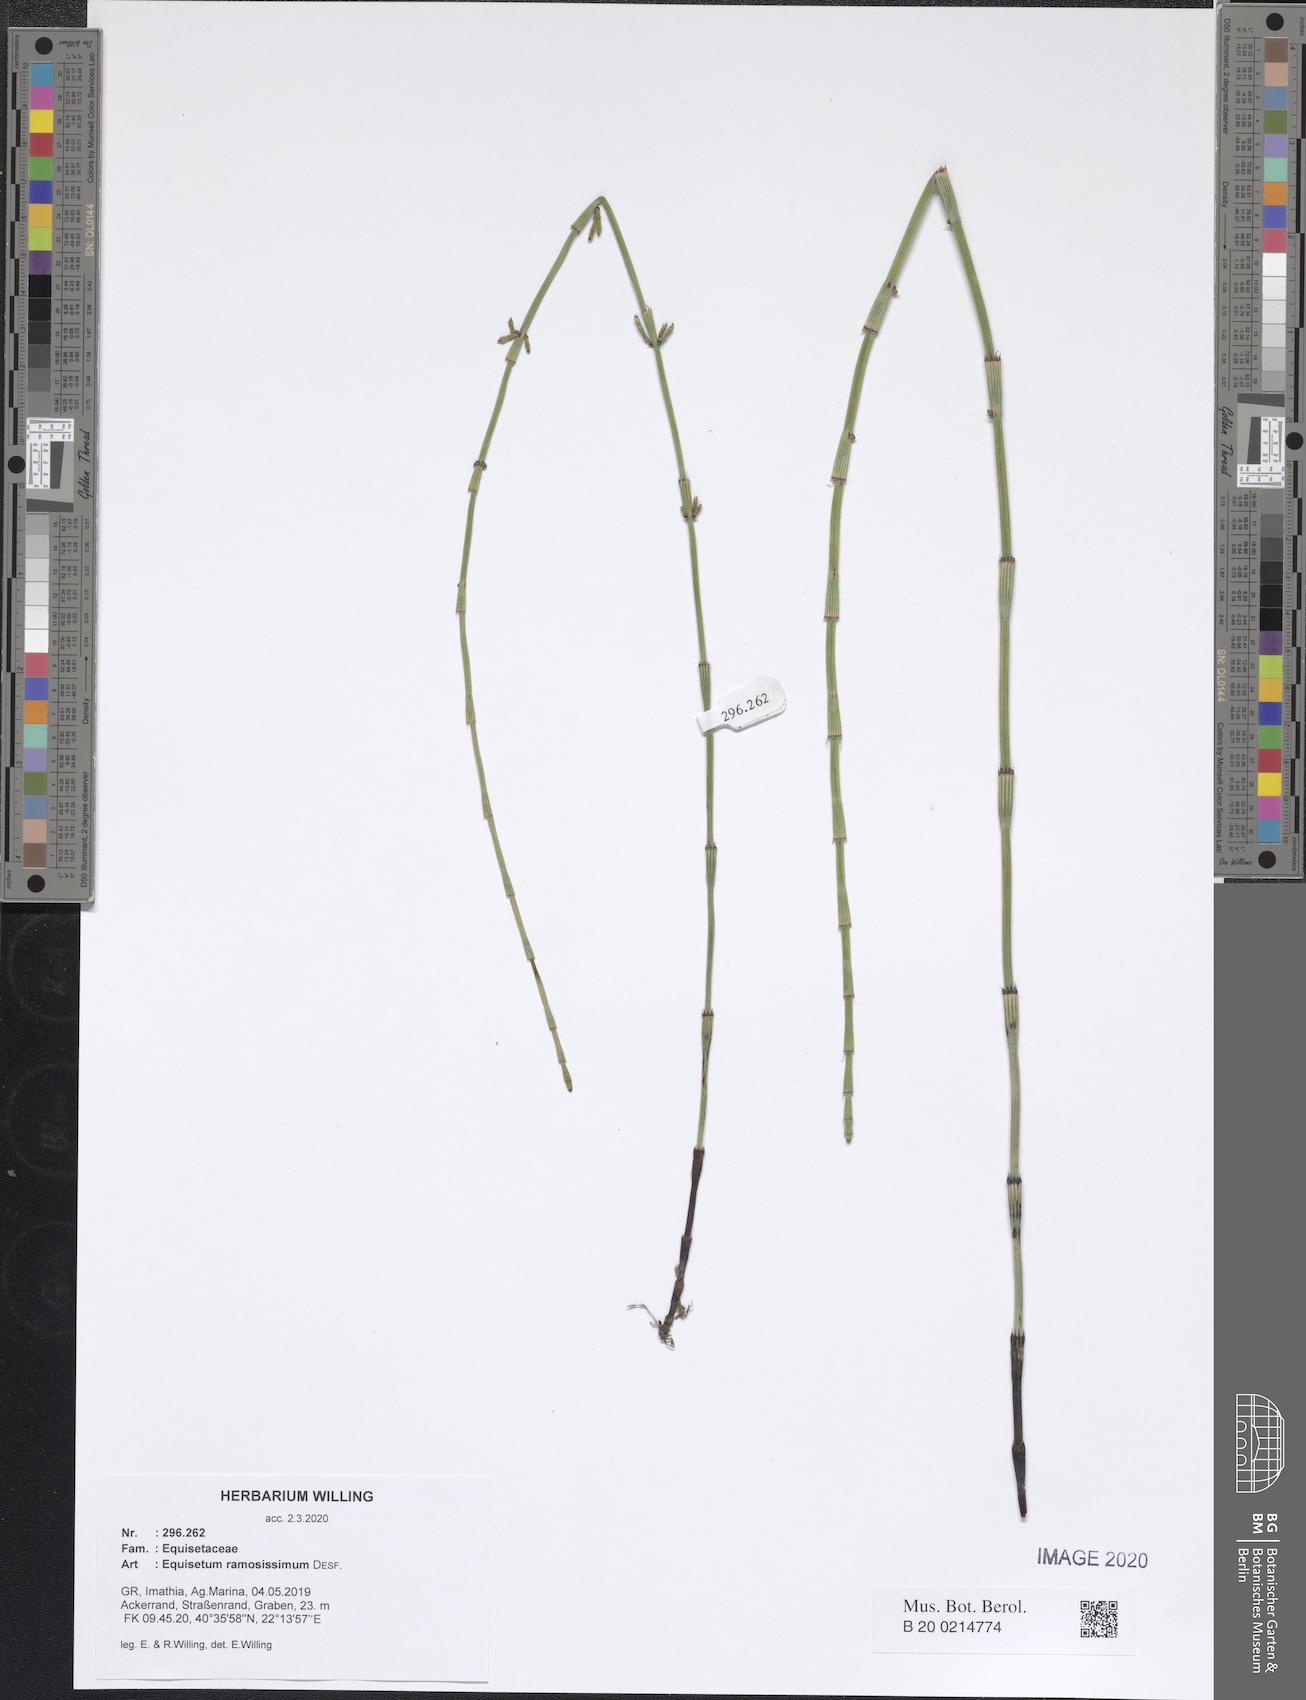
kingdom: Plantae
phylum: Tracheophyta
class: Polypodiopsida
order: Equisetales
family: Equisetaceae
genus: Equisetum
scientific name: Equisetum ramosissimum
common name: Branched horsetail
